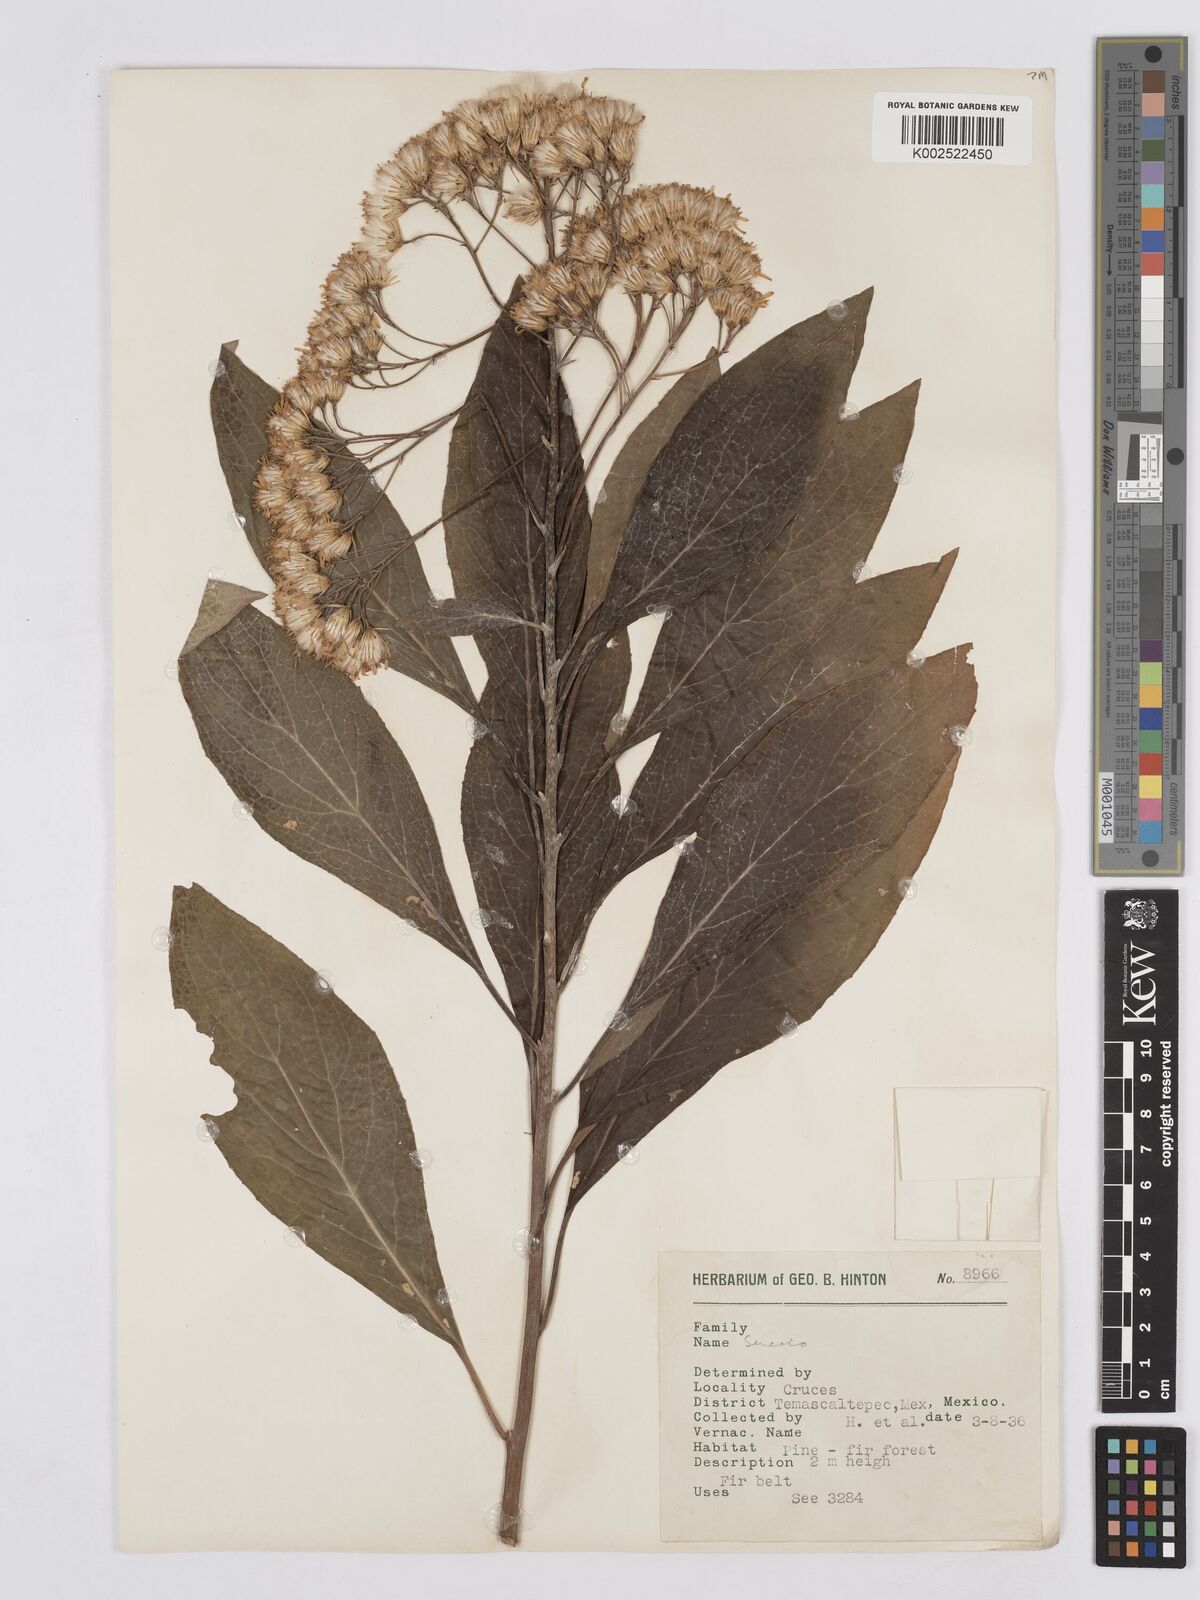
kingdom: Plantae
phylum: Tracheophyta
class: Magnoliopsida
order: Asterales
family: Asteraceae
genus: Roldana
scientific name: Roldana hintonii
